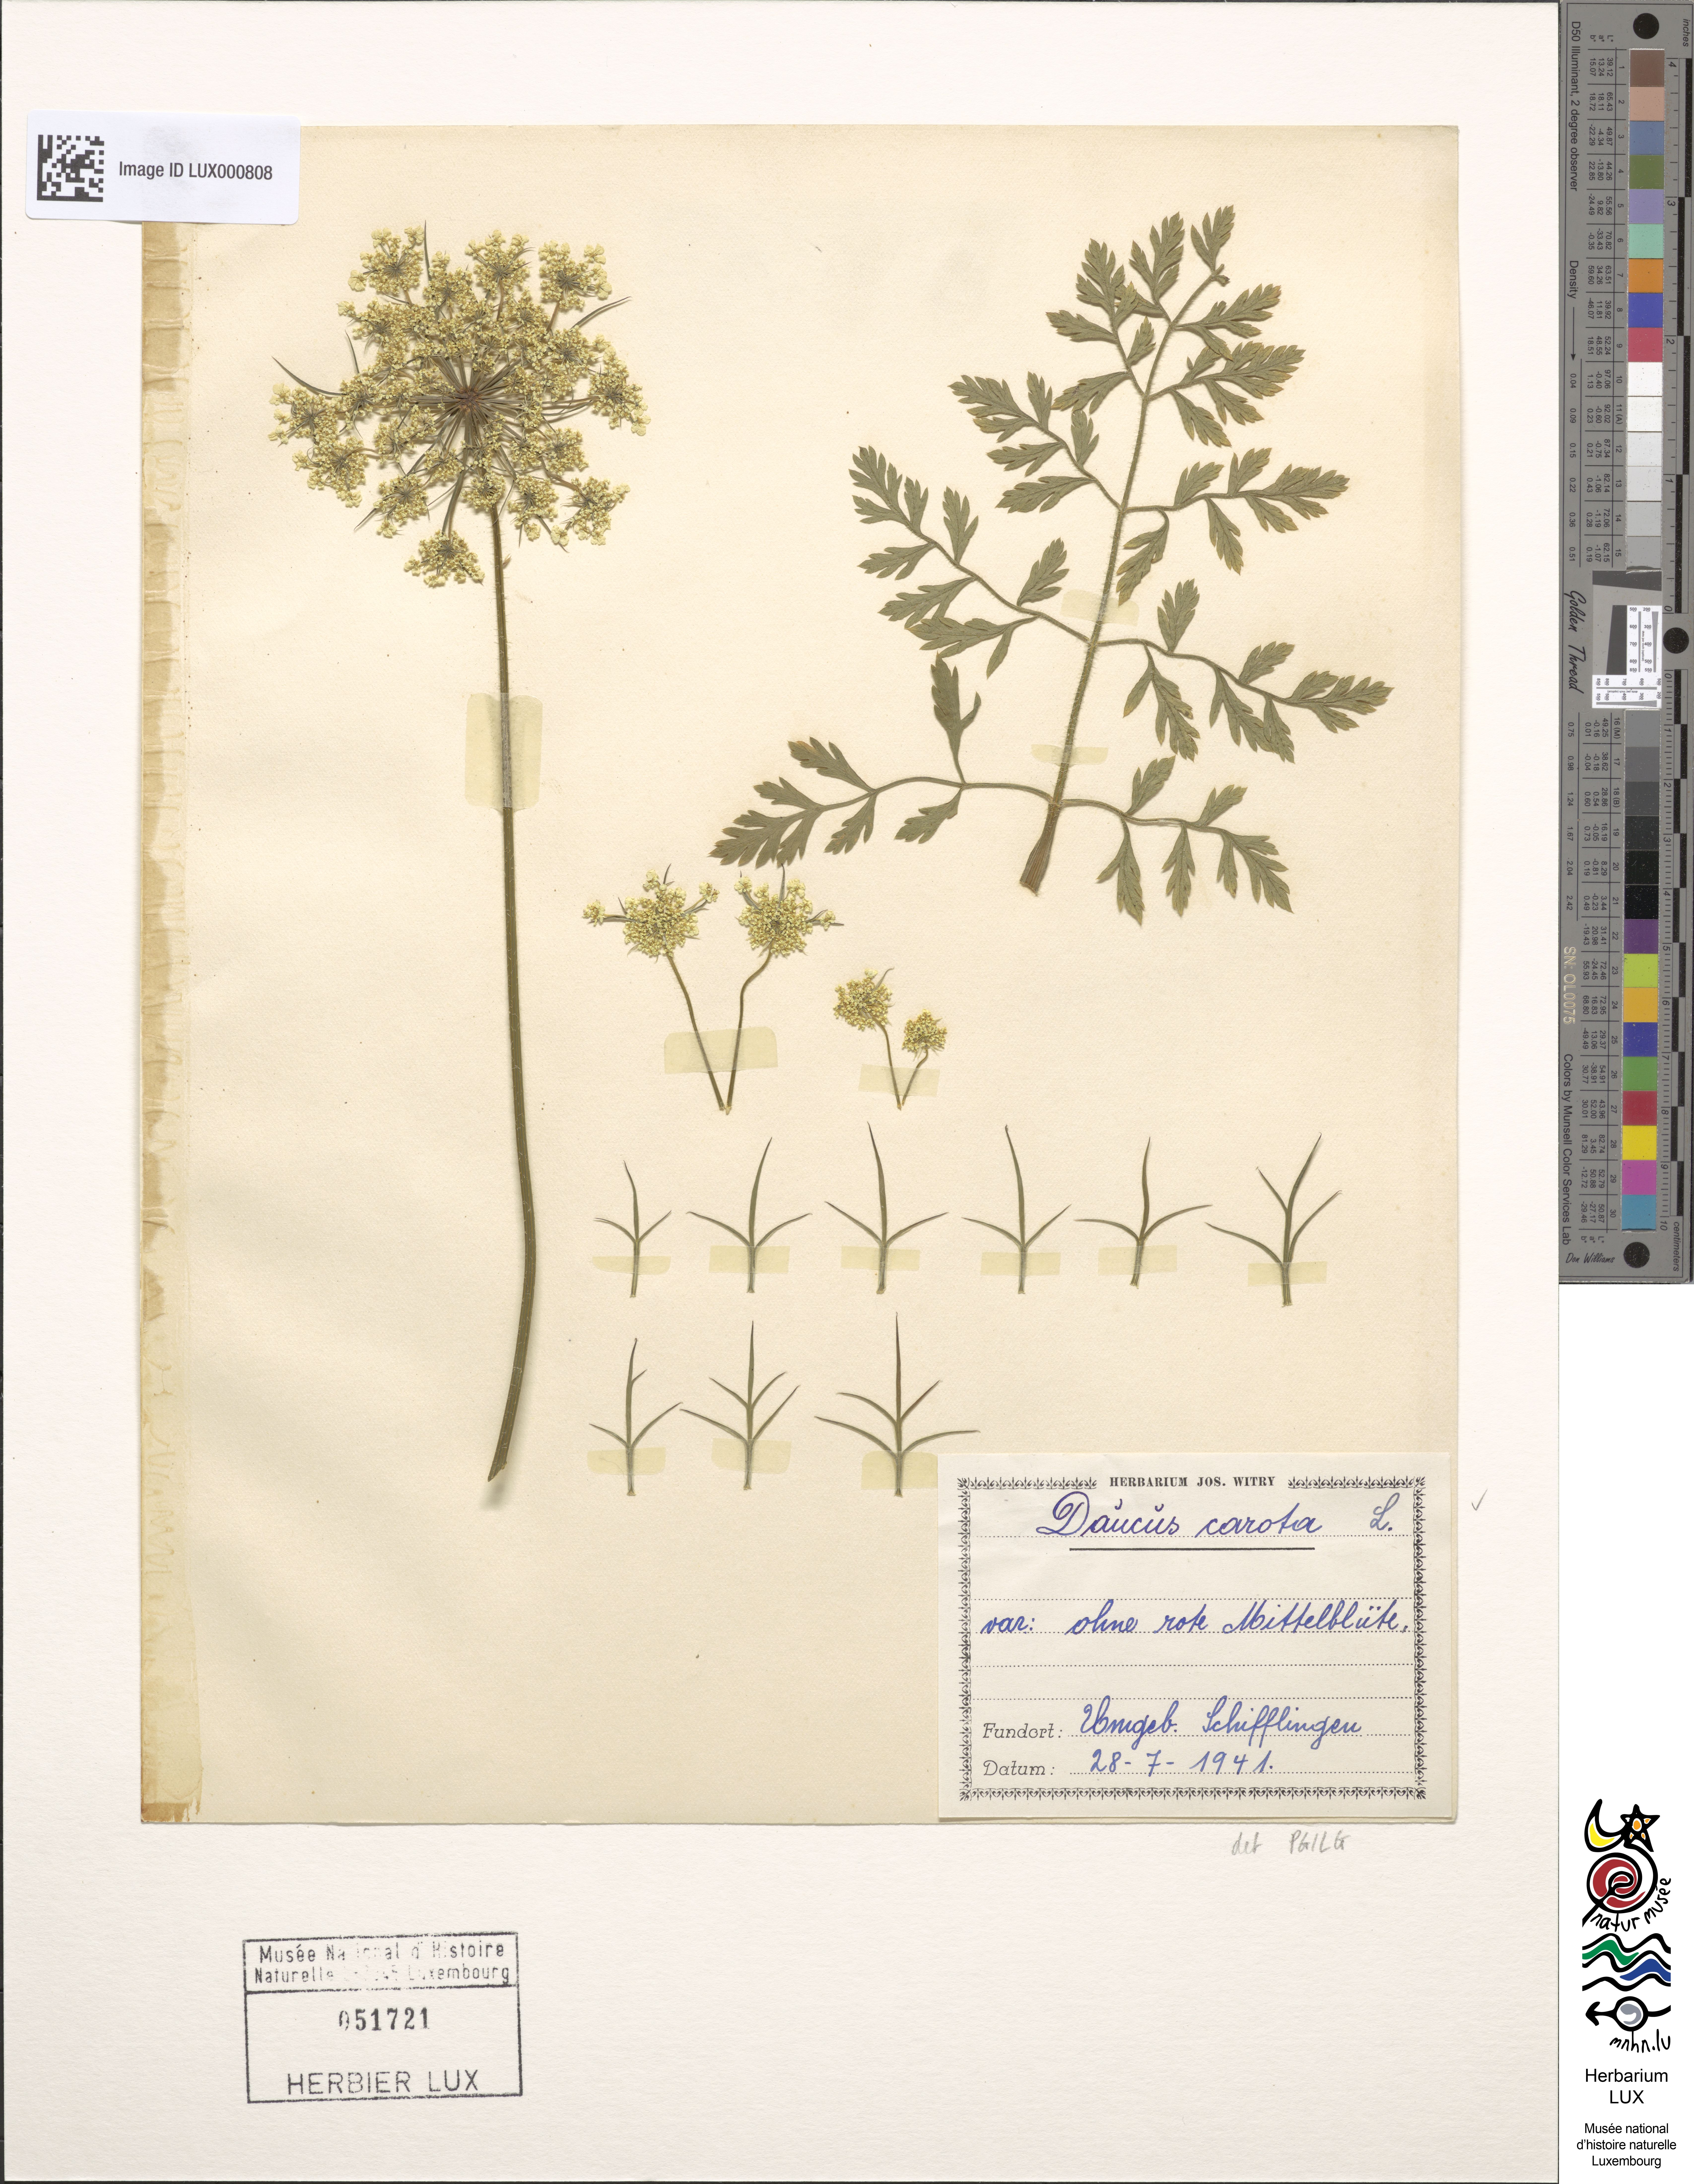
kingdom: Plantae
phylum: Tracheophyta
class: Magnoliopsida
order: Apiales
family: Apiaceae
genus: Daucus
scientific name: Daucus carota
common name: Wild carrot
